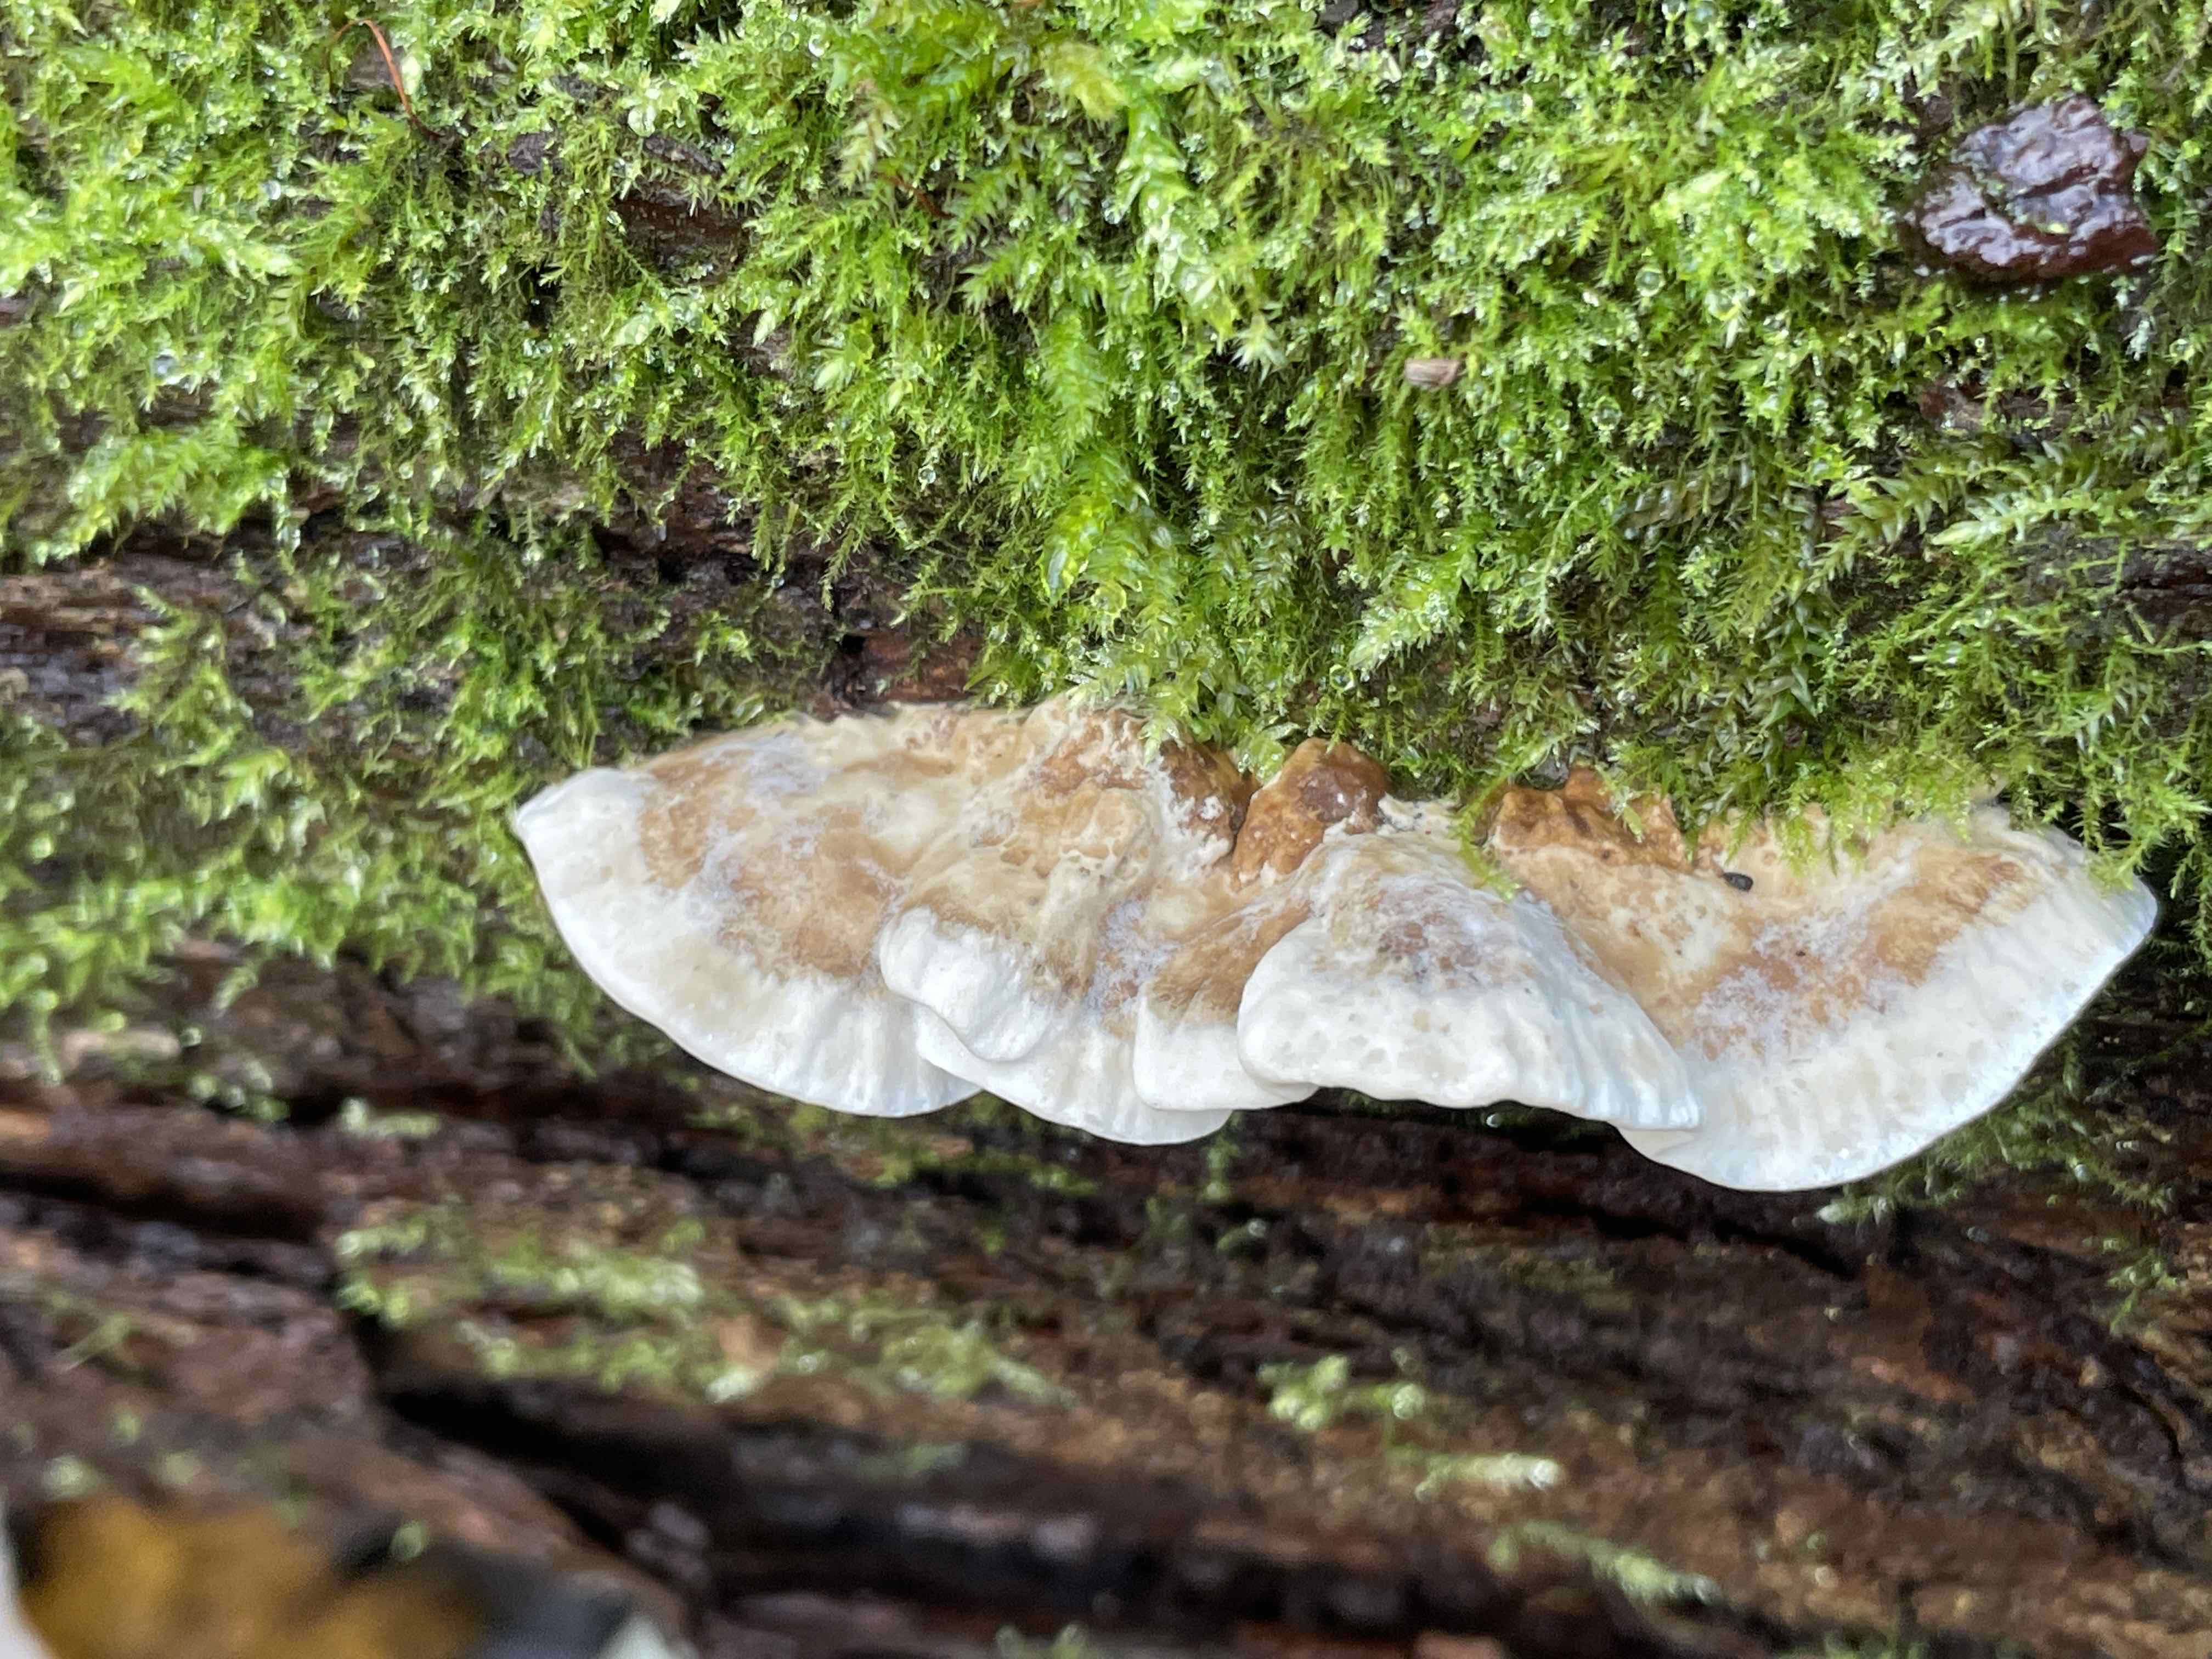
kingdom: Fungi
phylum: Basidiomycota
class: Agaricomycetes
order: Polyporales
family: Phanerochaetaceae
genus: Bjerkandera
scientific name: Bjerkandera fumosa
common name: grågul sodporesvamp
